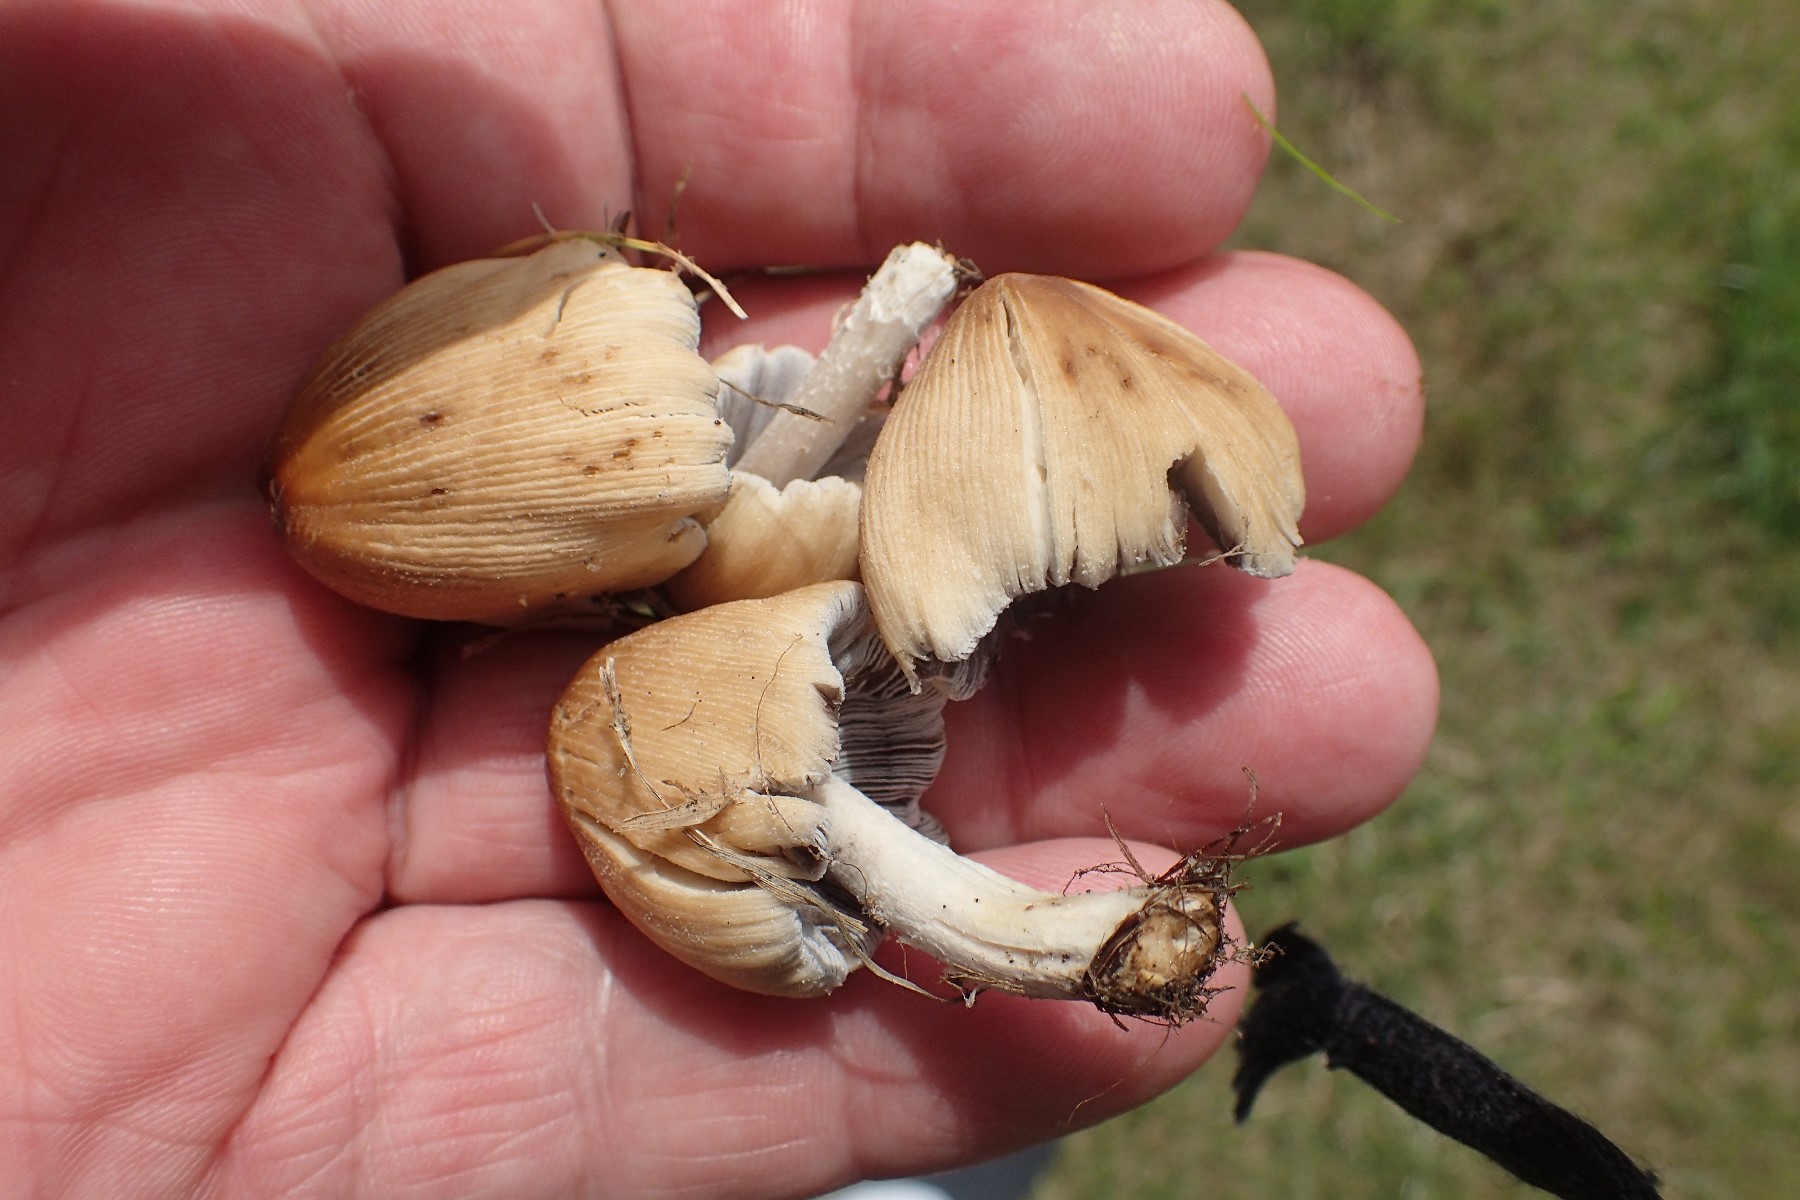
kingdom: Fungi
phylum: Basidiomycota
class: Agaricomycetes
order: Agaricales
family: Psathyrellaceae
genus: Coprinellus
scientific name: Coprinellus micaceus
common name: glimmer-blækhat
